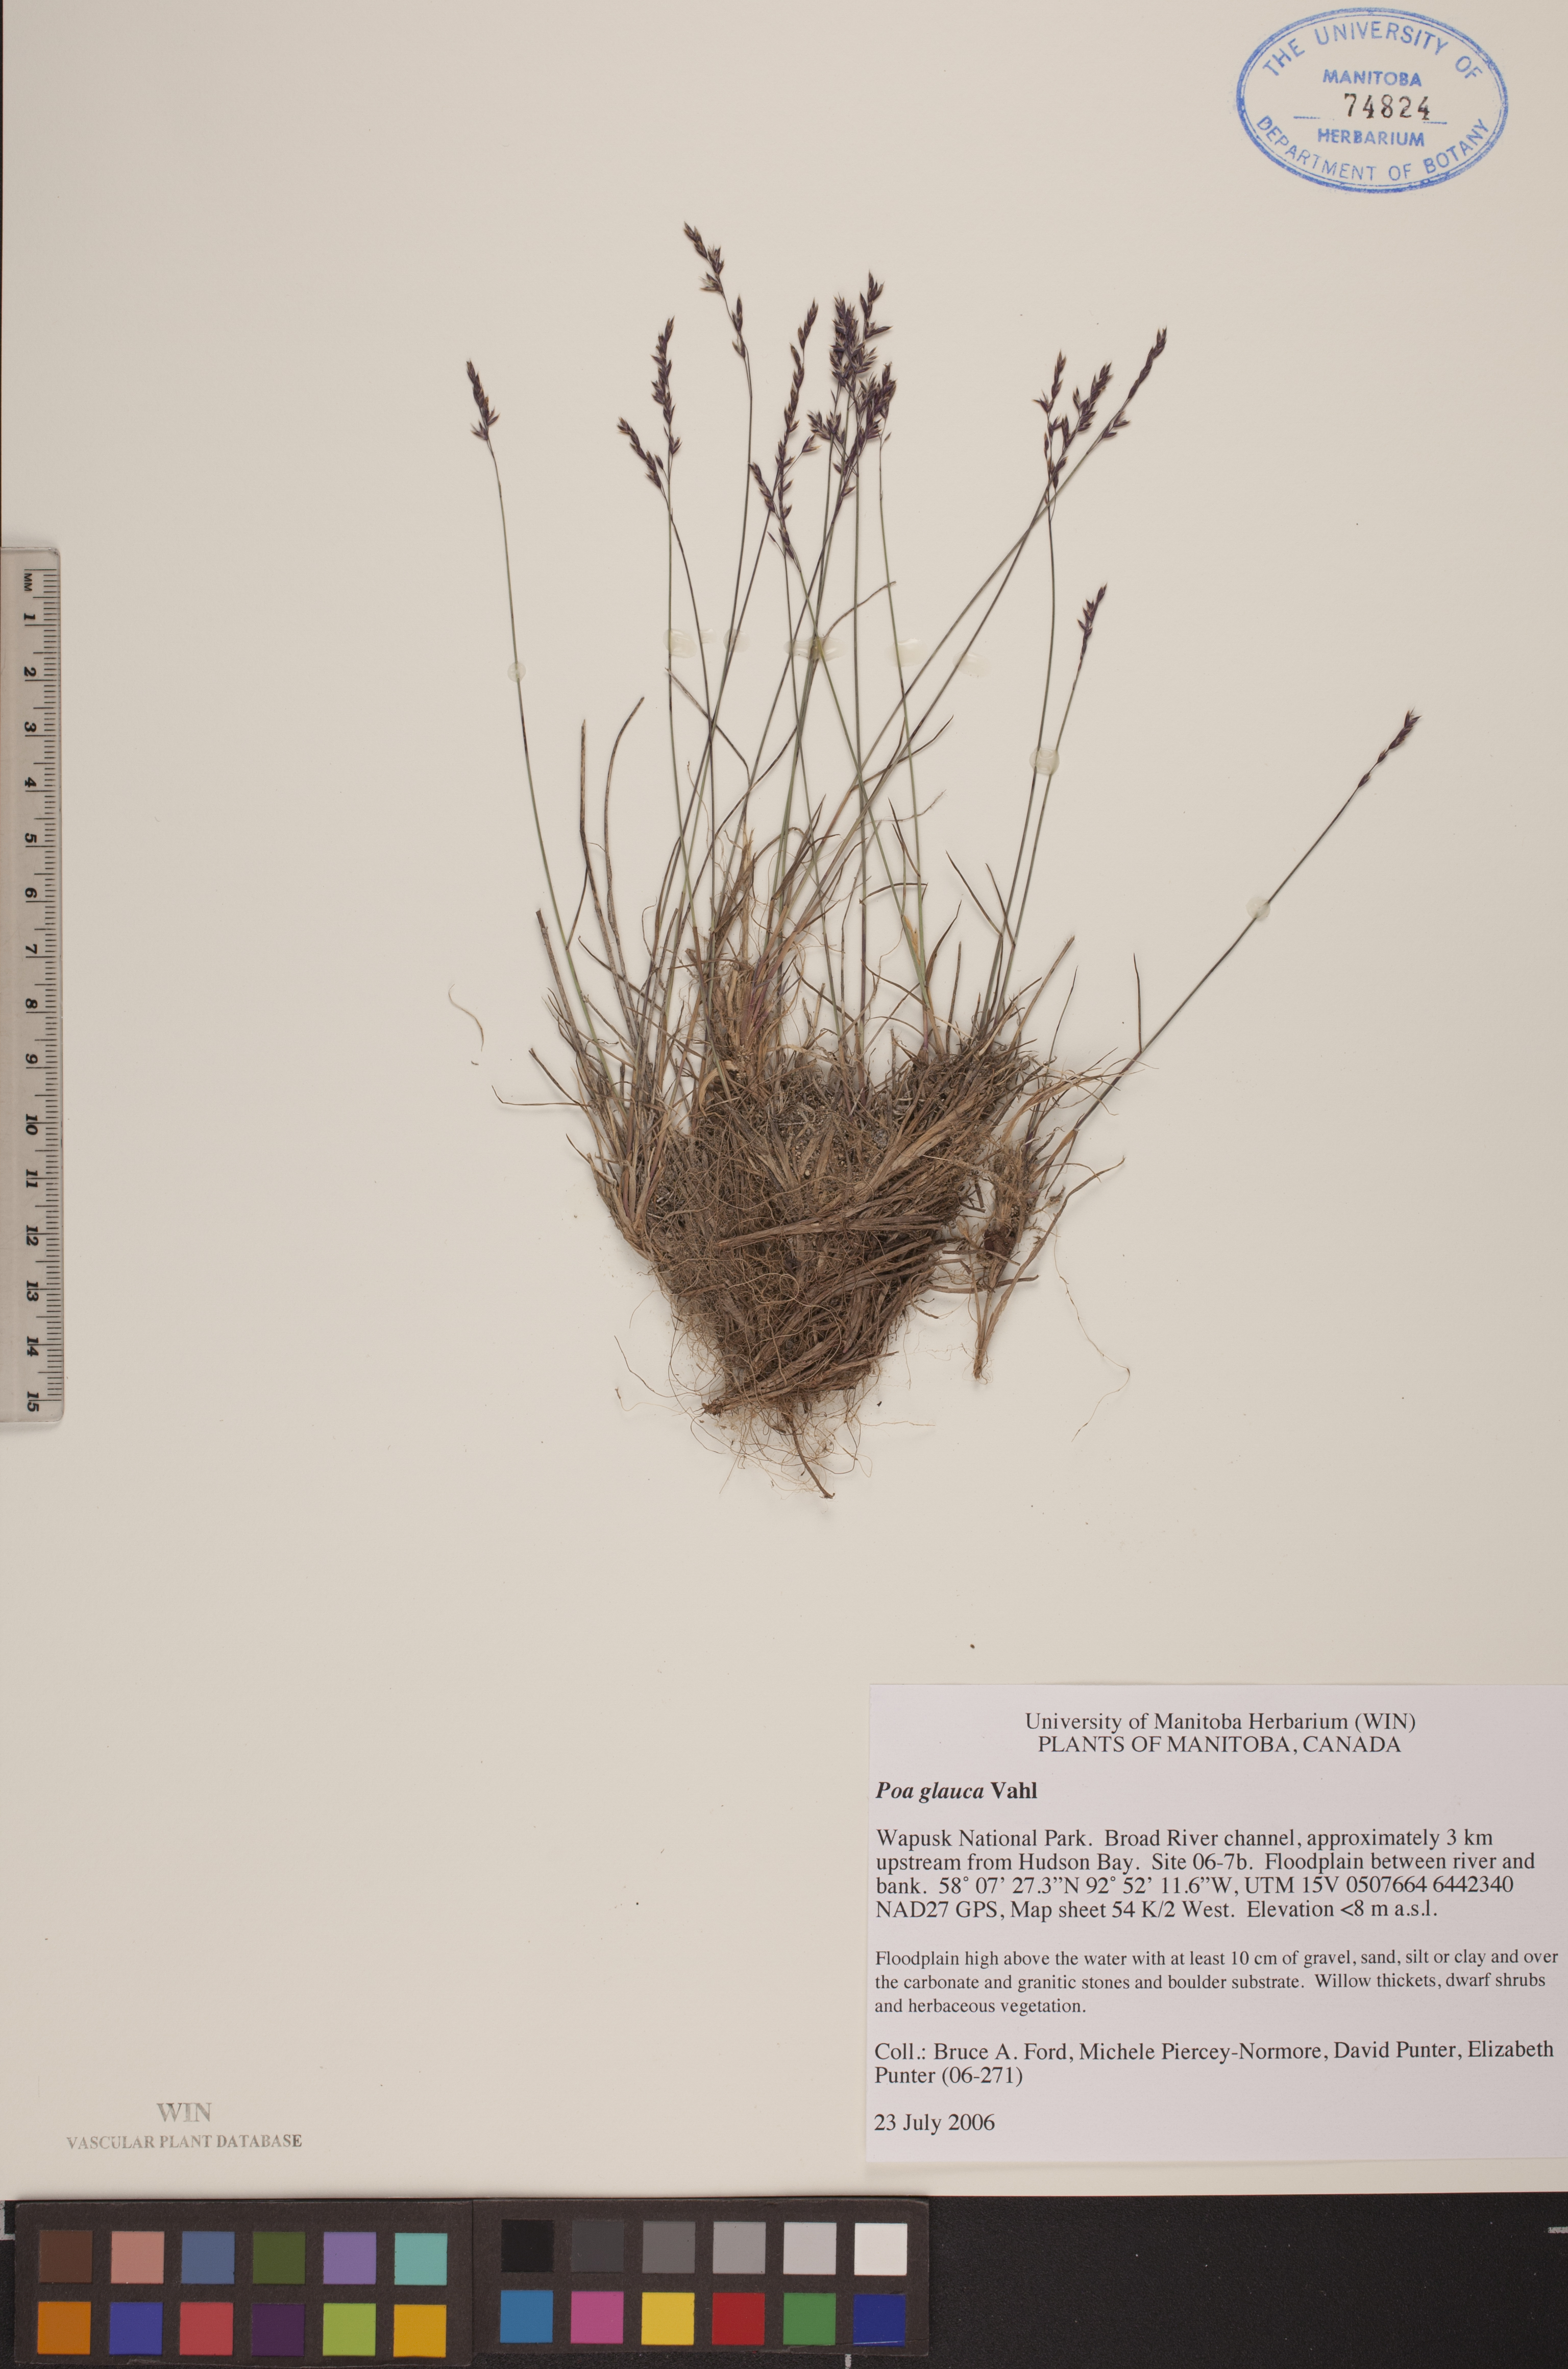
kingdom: Plantae
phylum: Tracheophyta
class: Liliopsida
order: Poales
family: Poaceae
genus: Poa
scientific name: Poa glauca
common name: Glaucous bluegrass
